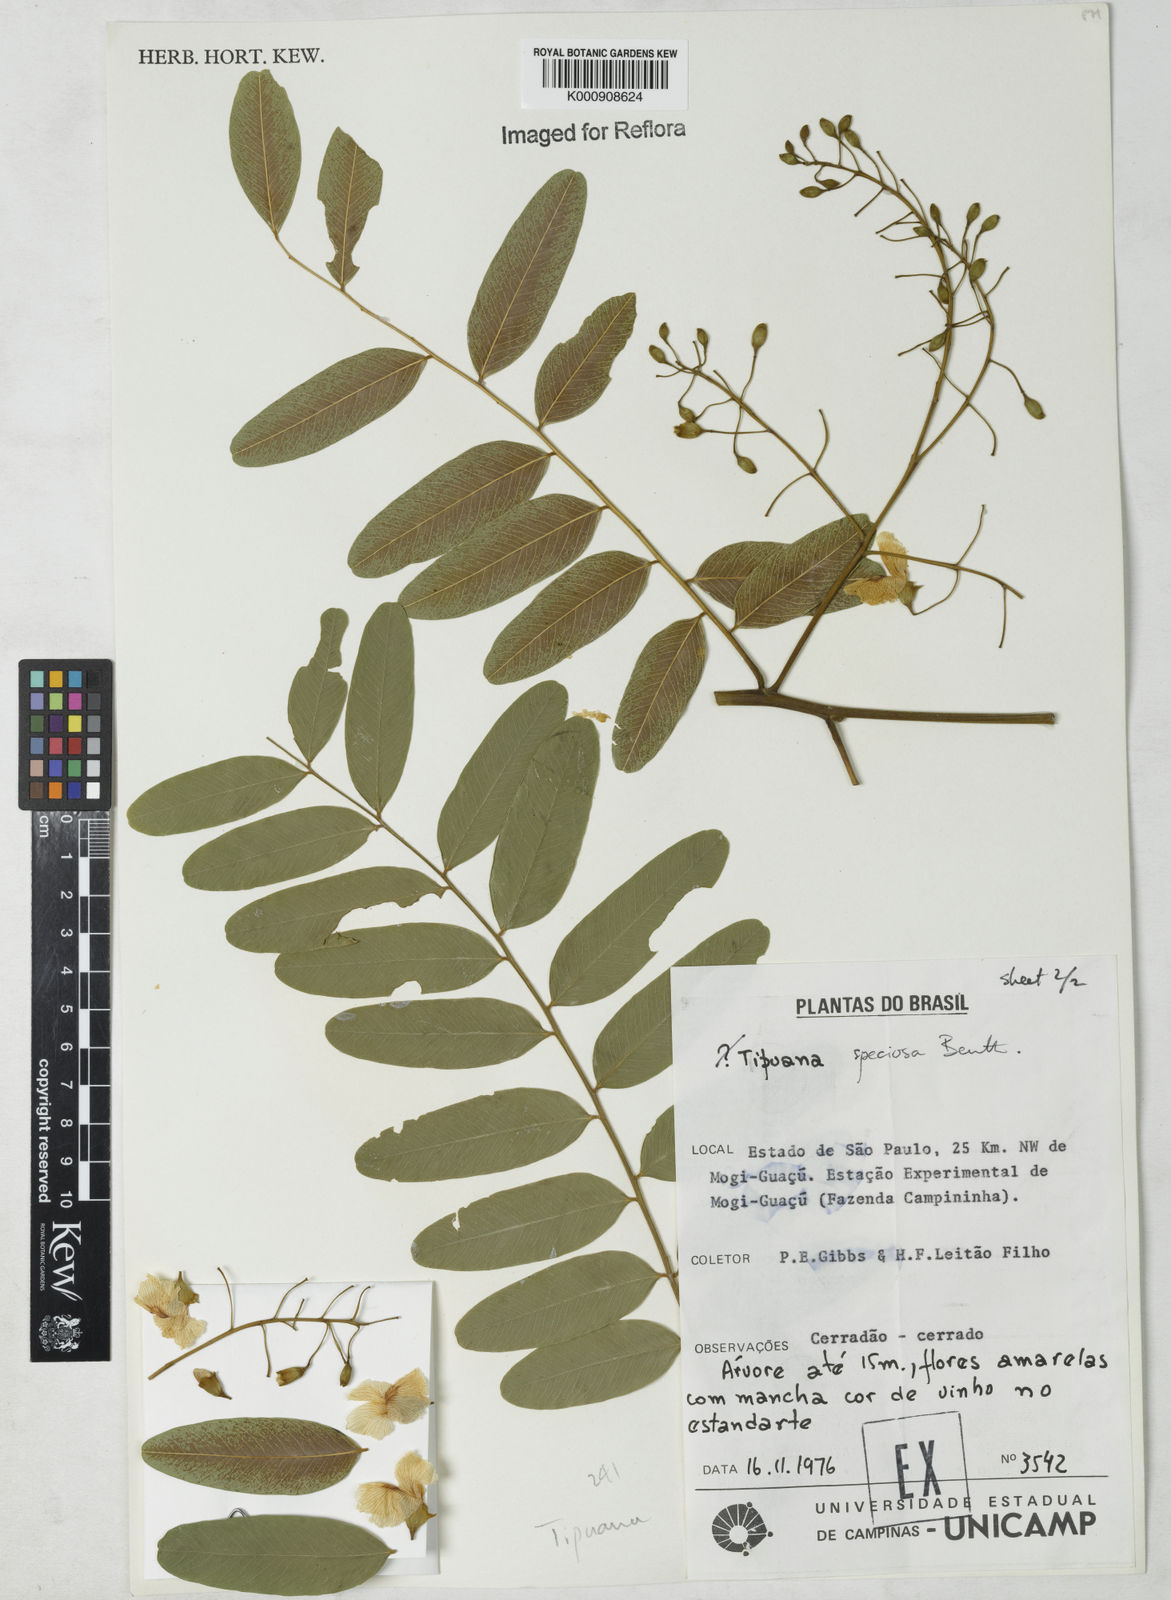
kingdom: Plantae
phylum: Tracheophyta
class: Magnoliopsida
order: Fabales
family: Fabaceae
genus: Tipuana
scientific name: Tipuana tipu
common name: Tiputree
